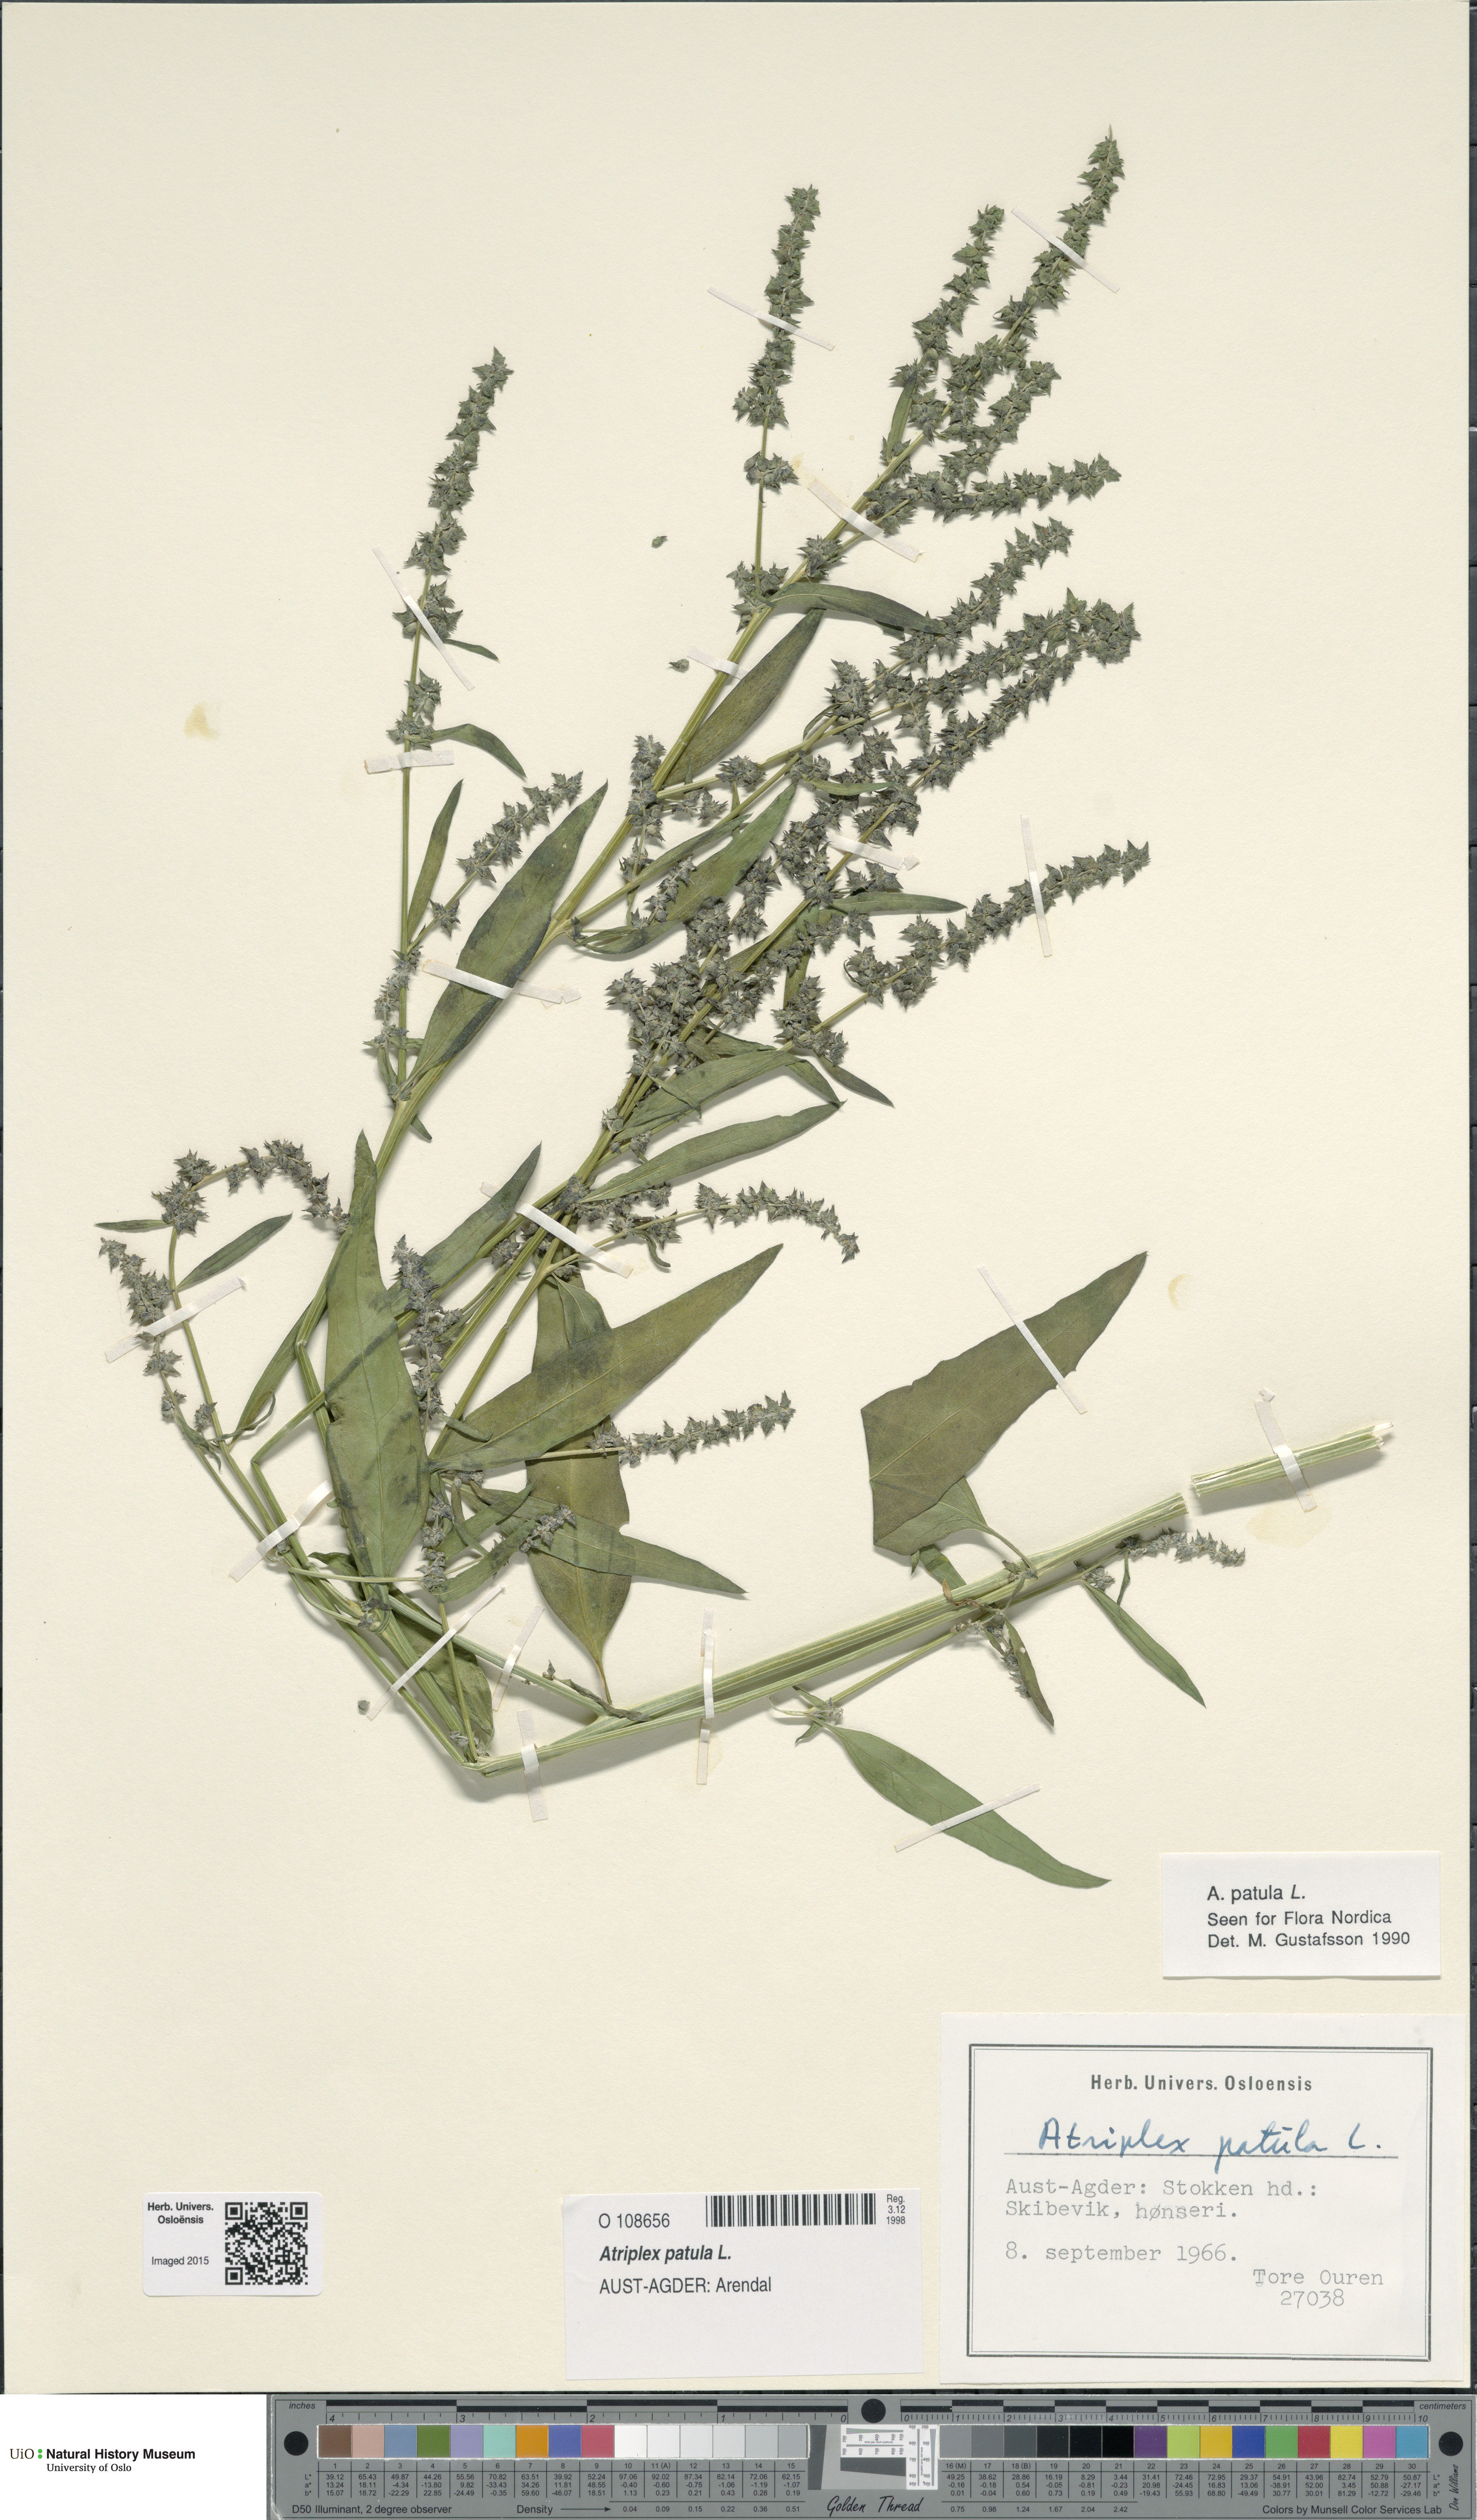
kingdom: Plantae
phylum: Tracheophyta
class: Magnoliopsida
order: Caryophyllales
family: Amaranthaceae
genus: Atriplex
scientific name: Atriplex patula
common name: Common orache
